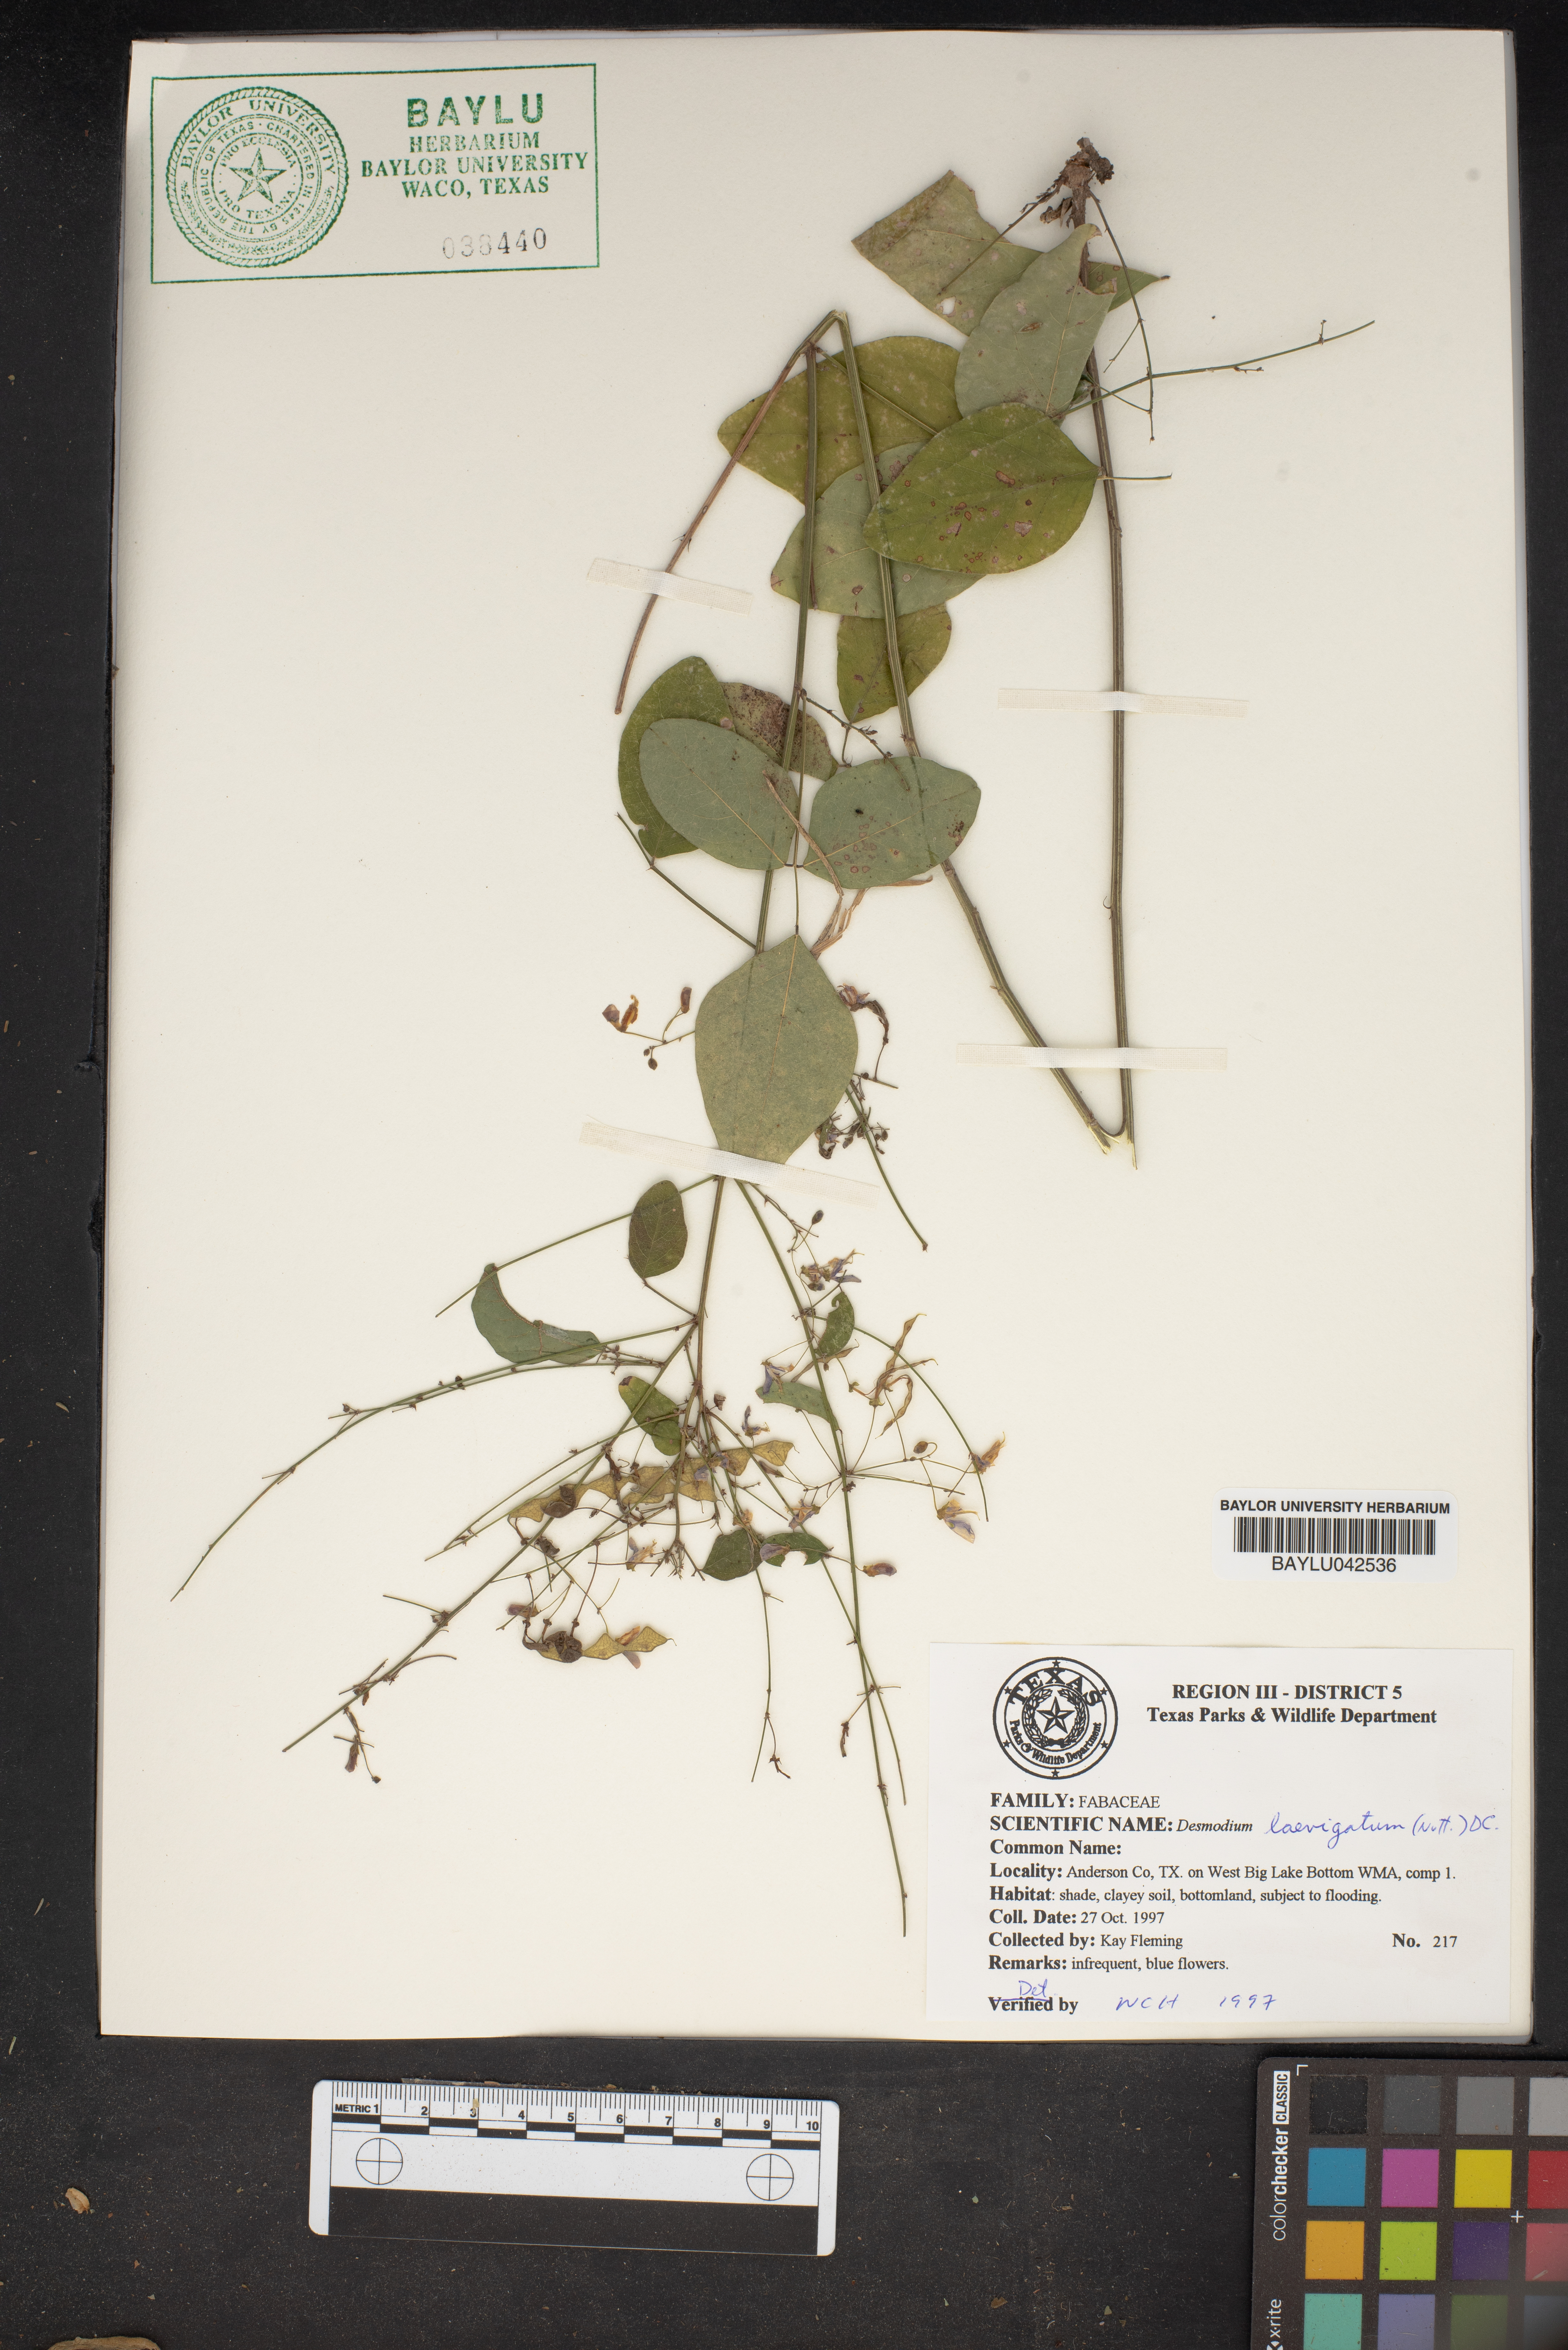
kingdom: Plantae
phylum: Tracheophyta
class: Magnoliopsida
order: Fabales
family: Fabaceae
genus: Desmodium
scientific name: Desmodium laevigatum
